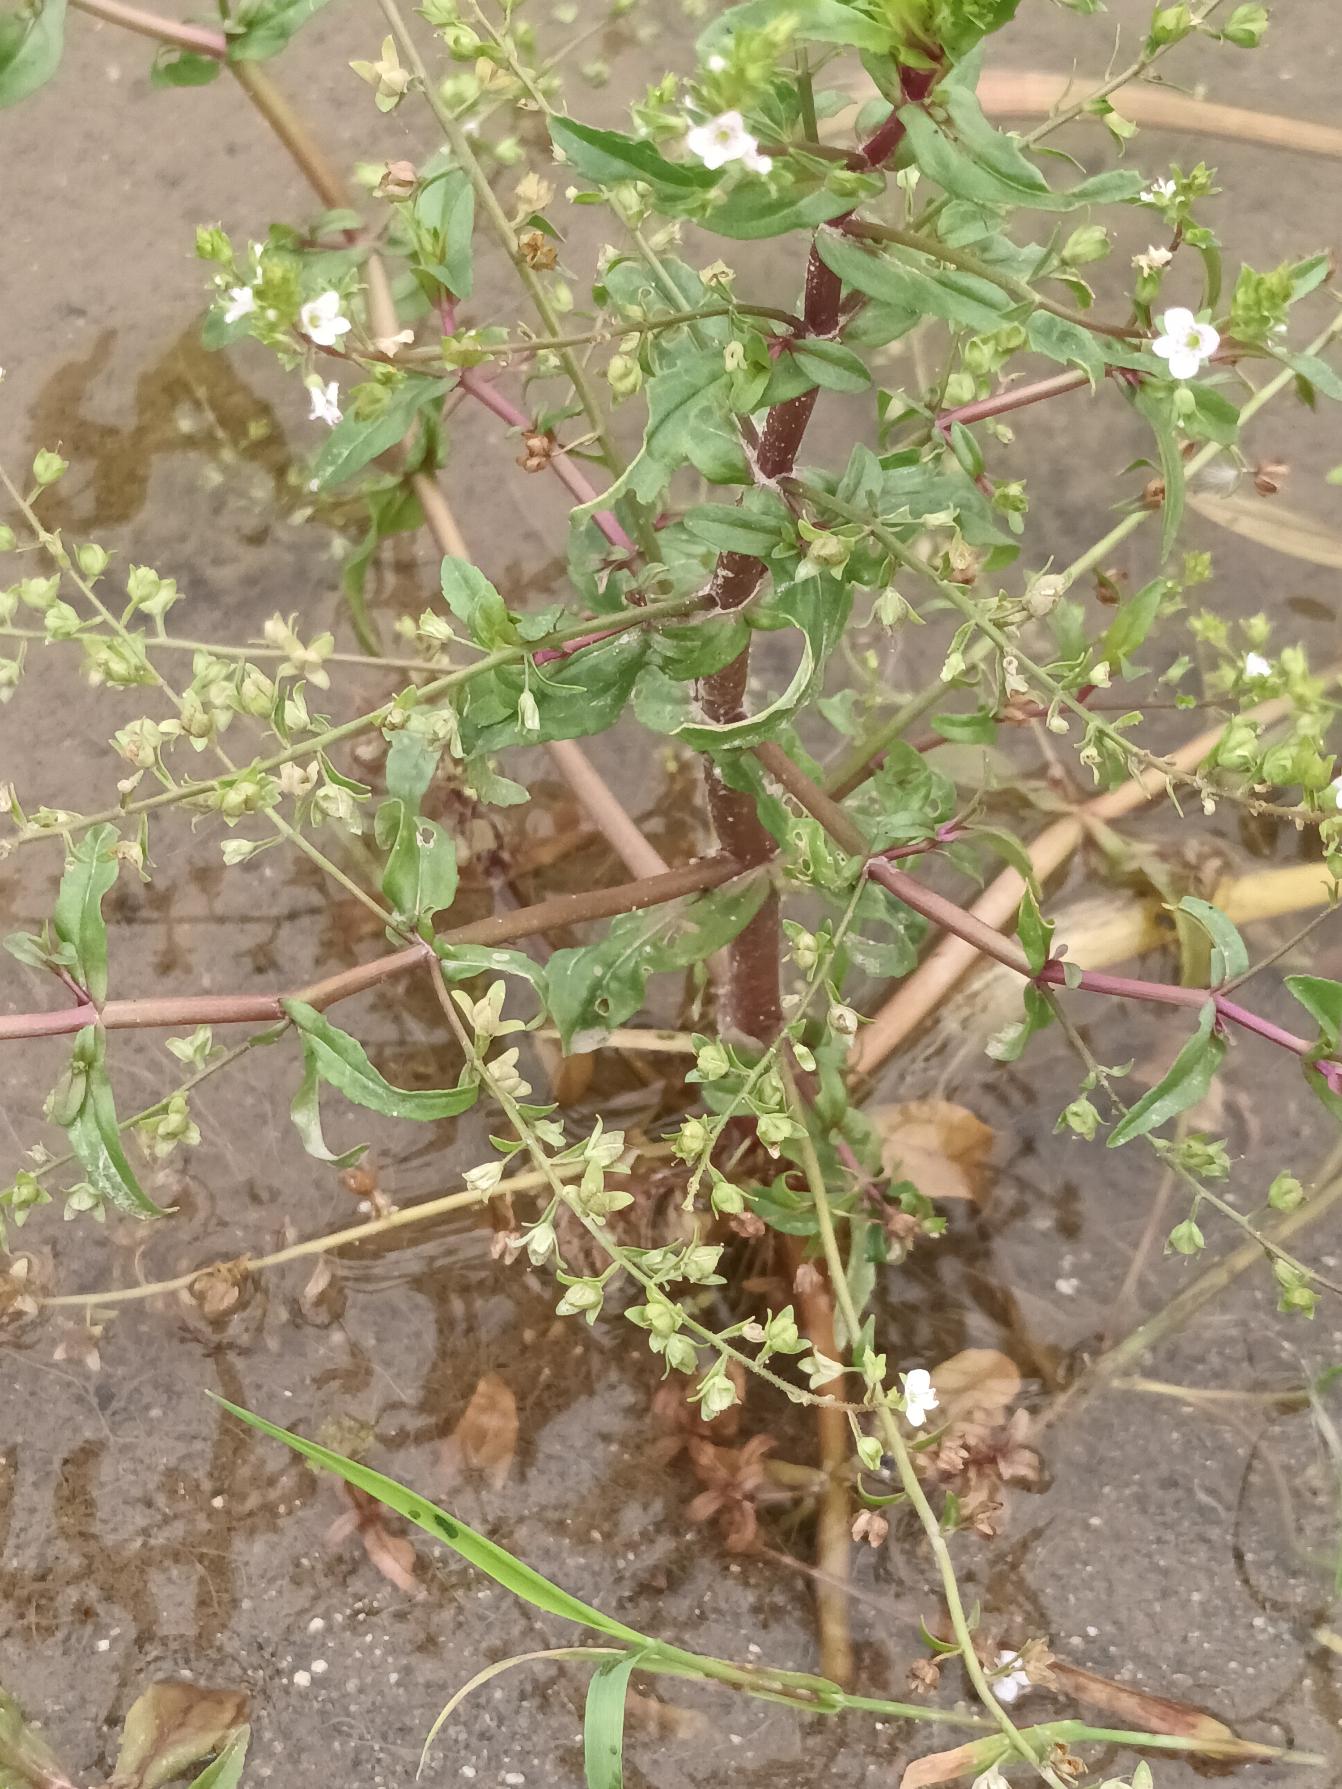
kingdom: Plantae
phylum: Tracheophyta
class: Magnoliopsida
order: Lamiales
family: Plantaginaceae
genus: Veronica
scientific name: Veronica catenata
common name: Vand-ærenpris
